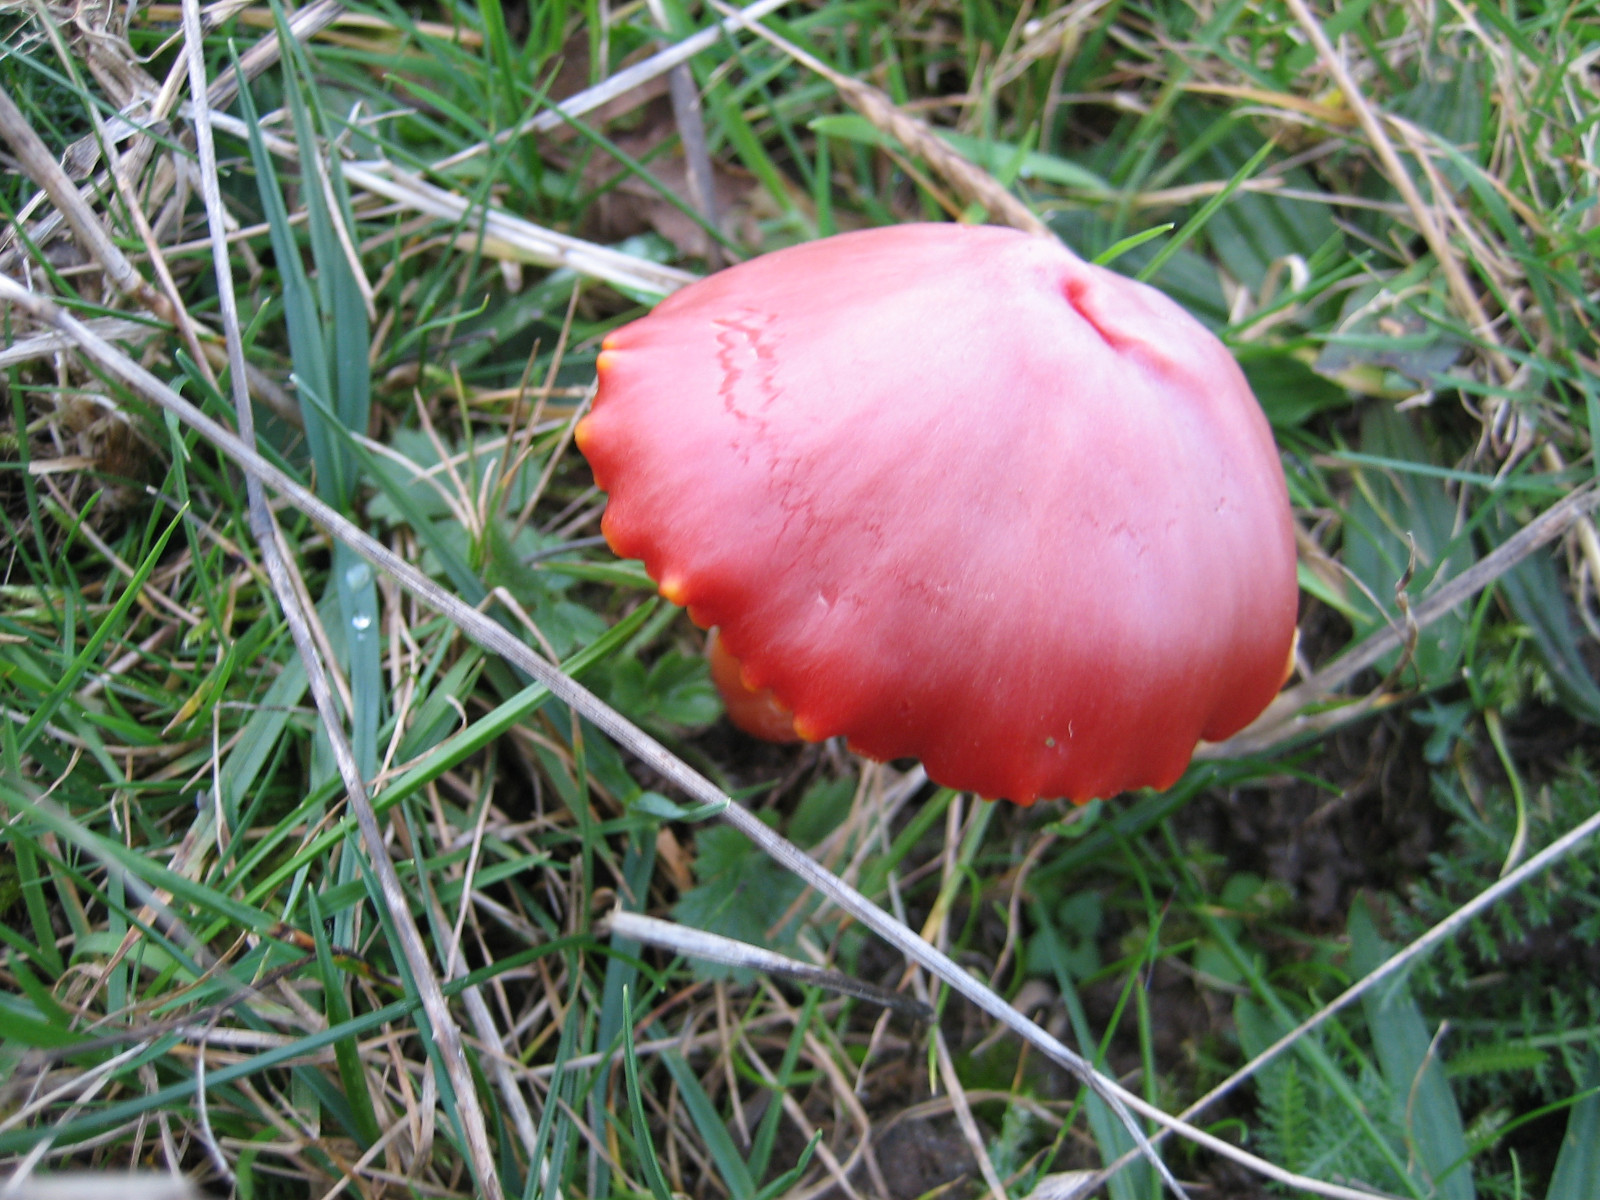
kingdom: Fungi
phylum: Basidiomycota
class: Agaricomycetes
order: Agaricales
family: Hygrophoraceae
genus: Hygrocybe
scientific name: Hygrocybe coccinea
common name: cinnober-vokshat
